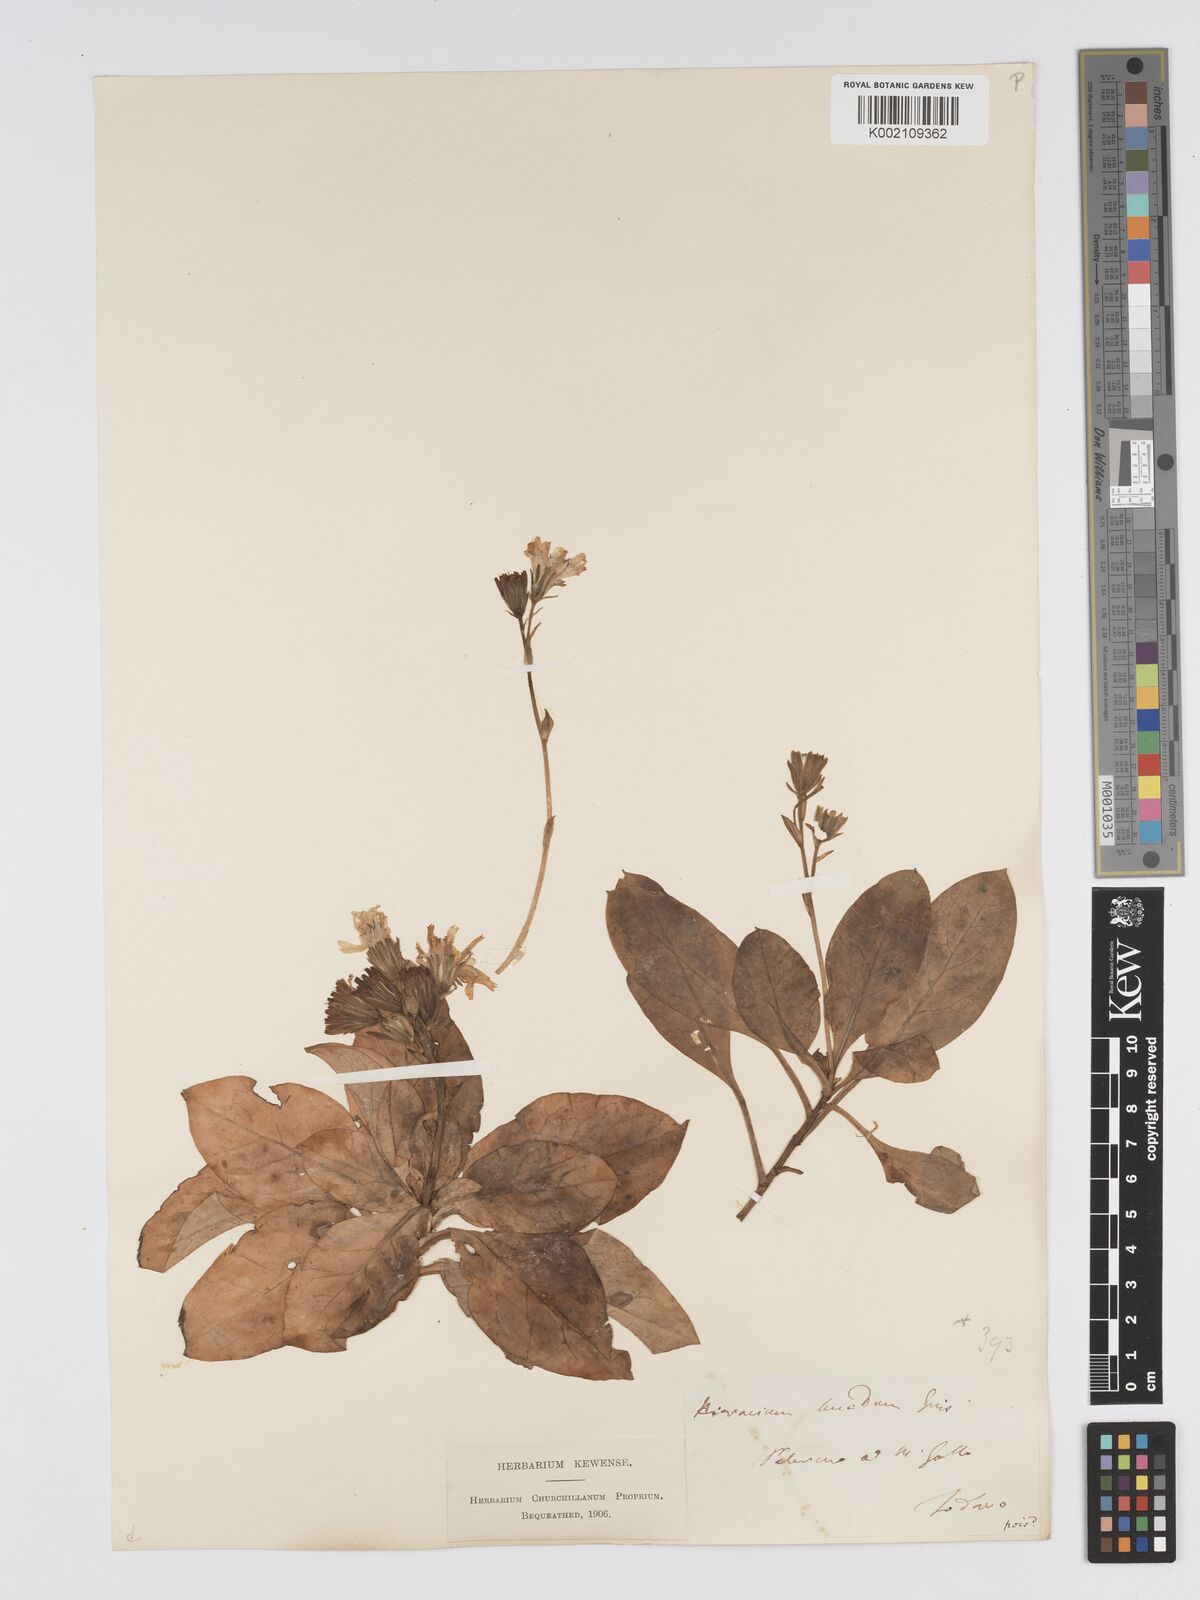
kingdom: Plantae
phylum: Tracheophyta
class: Magnoliopsida
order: Asterales
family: Asteraceae
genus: Hieracium
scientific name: Hieracium lucidum
